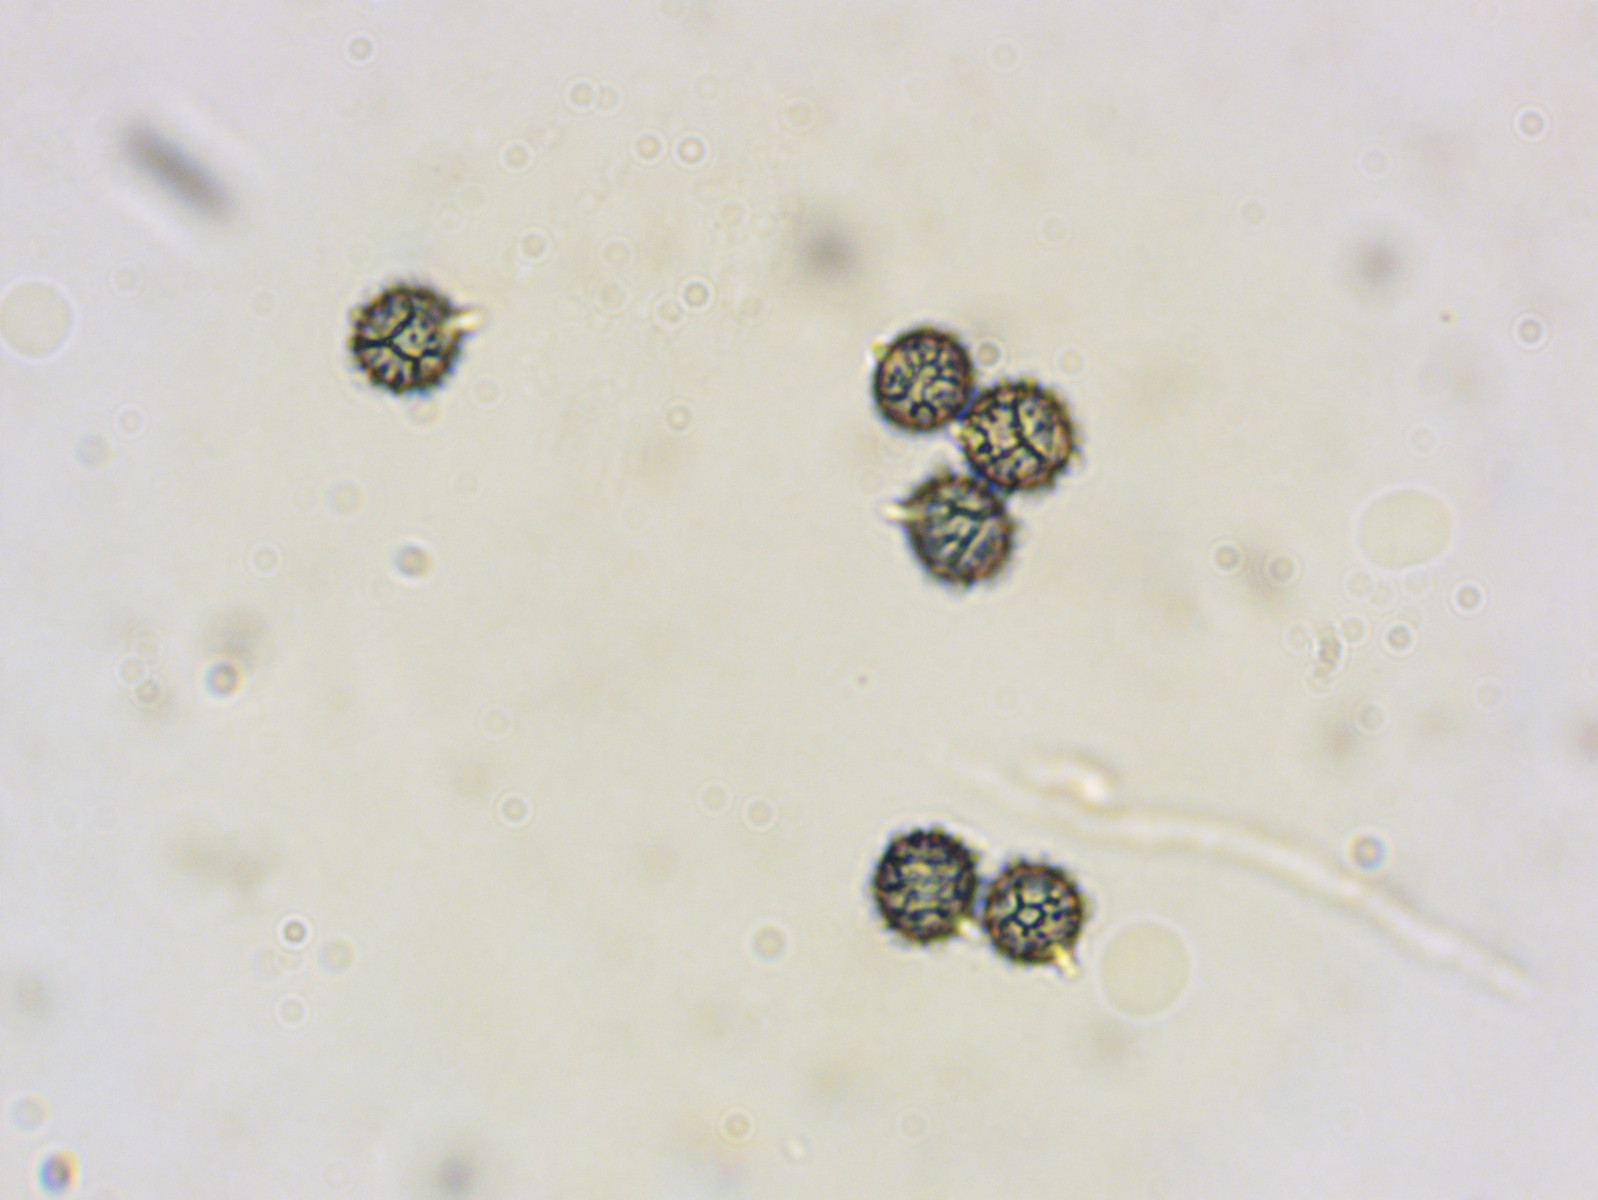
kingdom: Fungi
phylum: Basidiomycota
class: Agaricomycetes
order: Russulales
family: Russulaceae
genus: Lactarius
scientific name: Lactarius serifluus
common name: tæge-mælkehat
